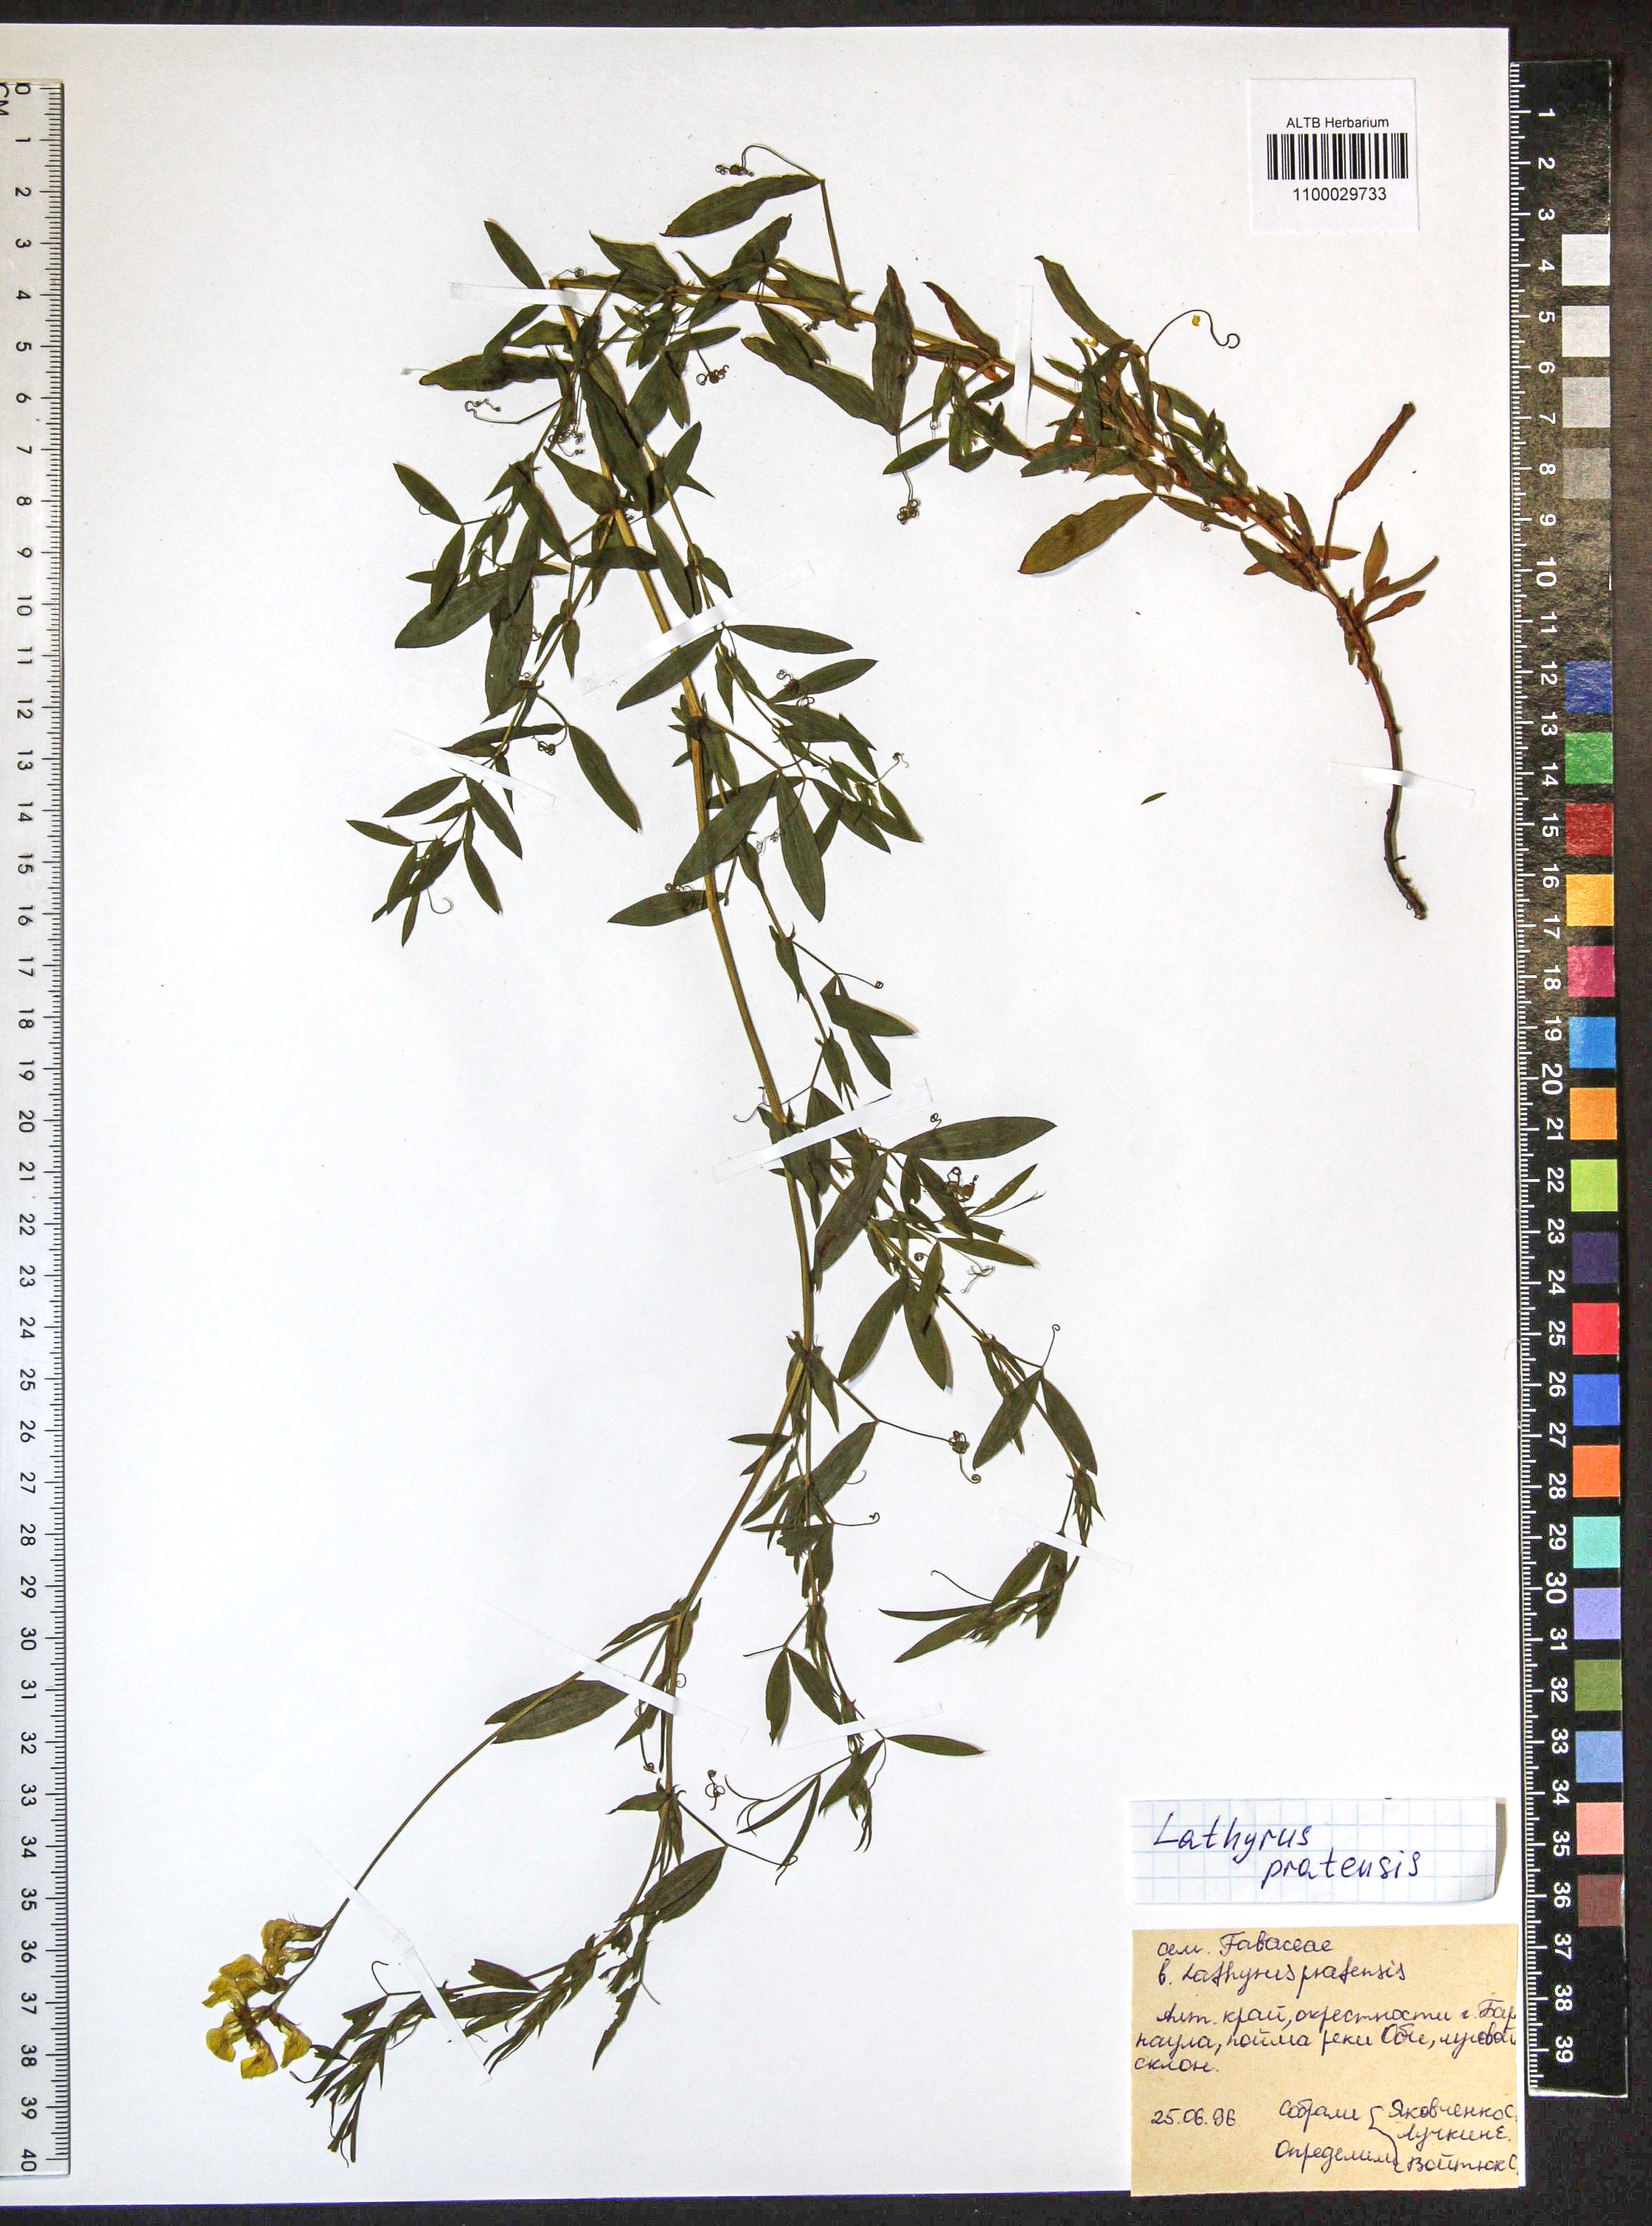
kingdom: Plantae
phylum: Tracheophyta
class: Magnoliopsida
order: Fabales
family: Fabaceae
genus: Lathyrus
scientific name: Lathyrus pratensis
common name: Meadow vetchling
